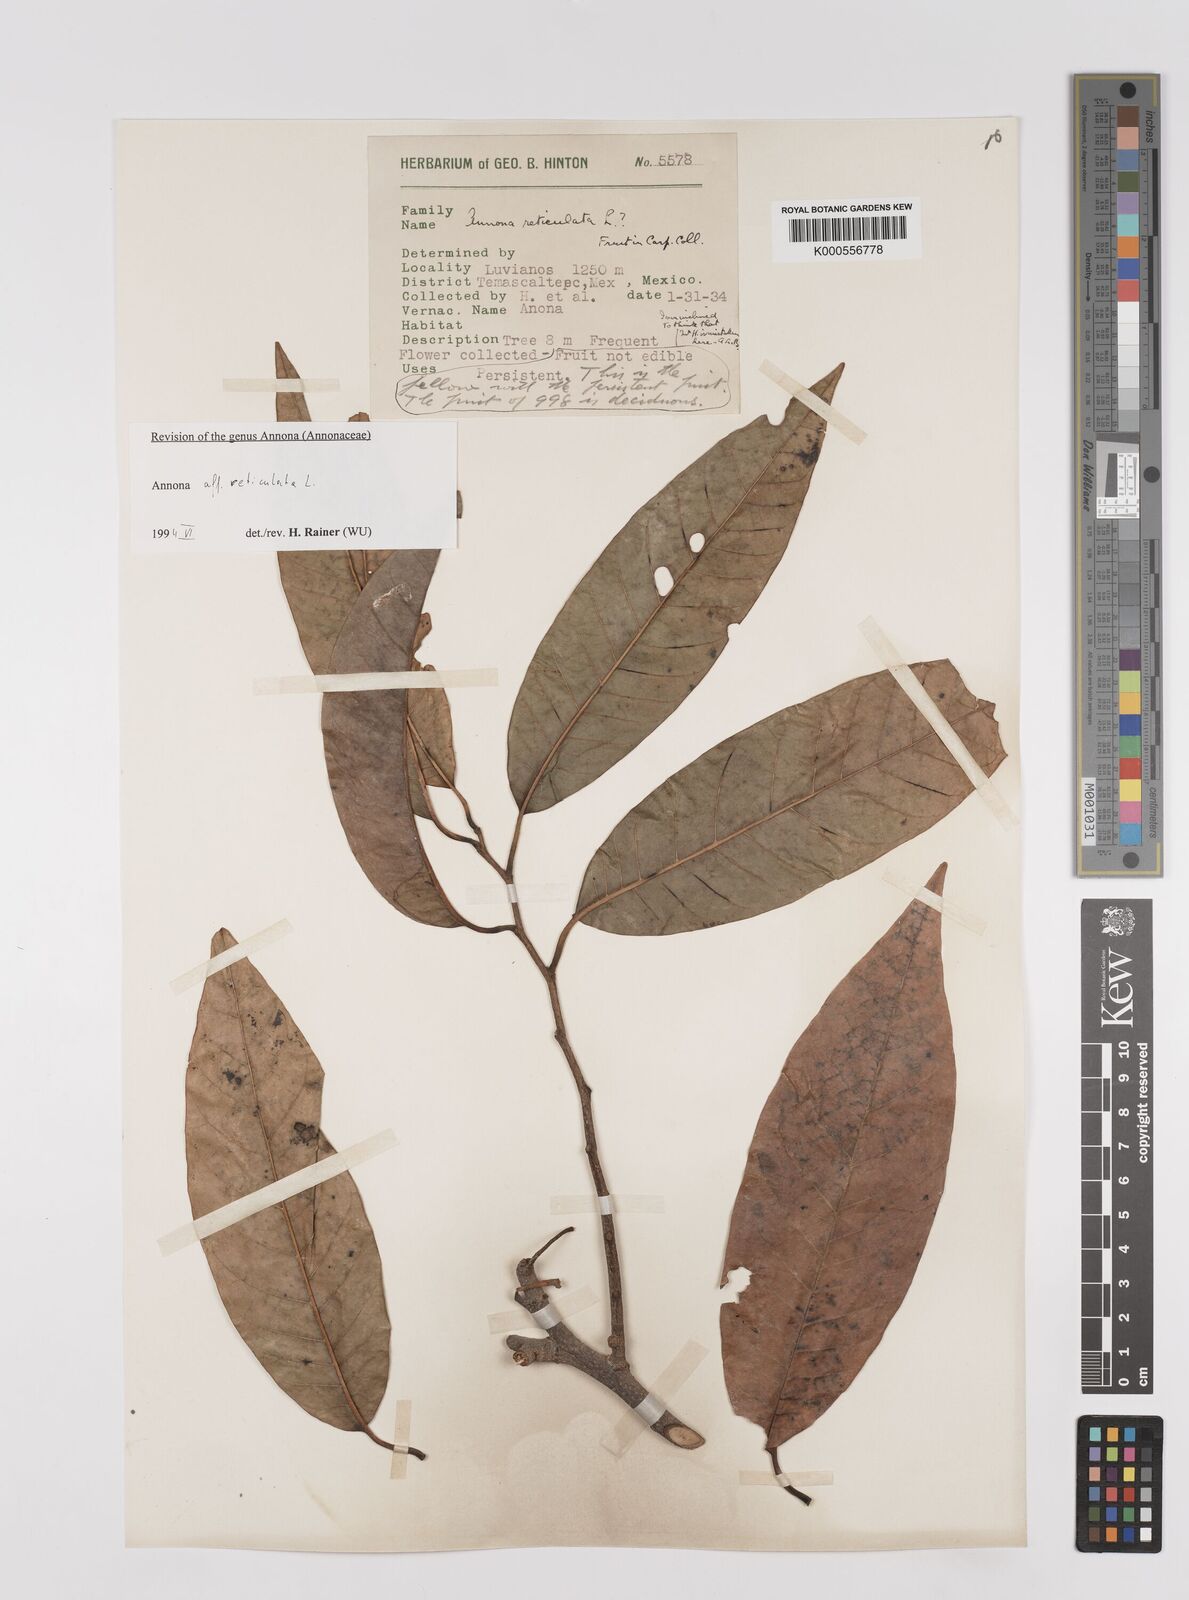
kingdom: Plantae
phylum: Tracheophyta
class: Magnoliopsida
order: Magnoliales
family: Annonaceae
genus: Annona
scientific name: Annona reticulata
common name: Custard apple
